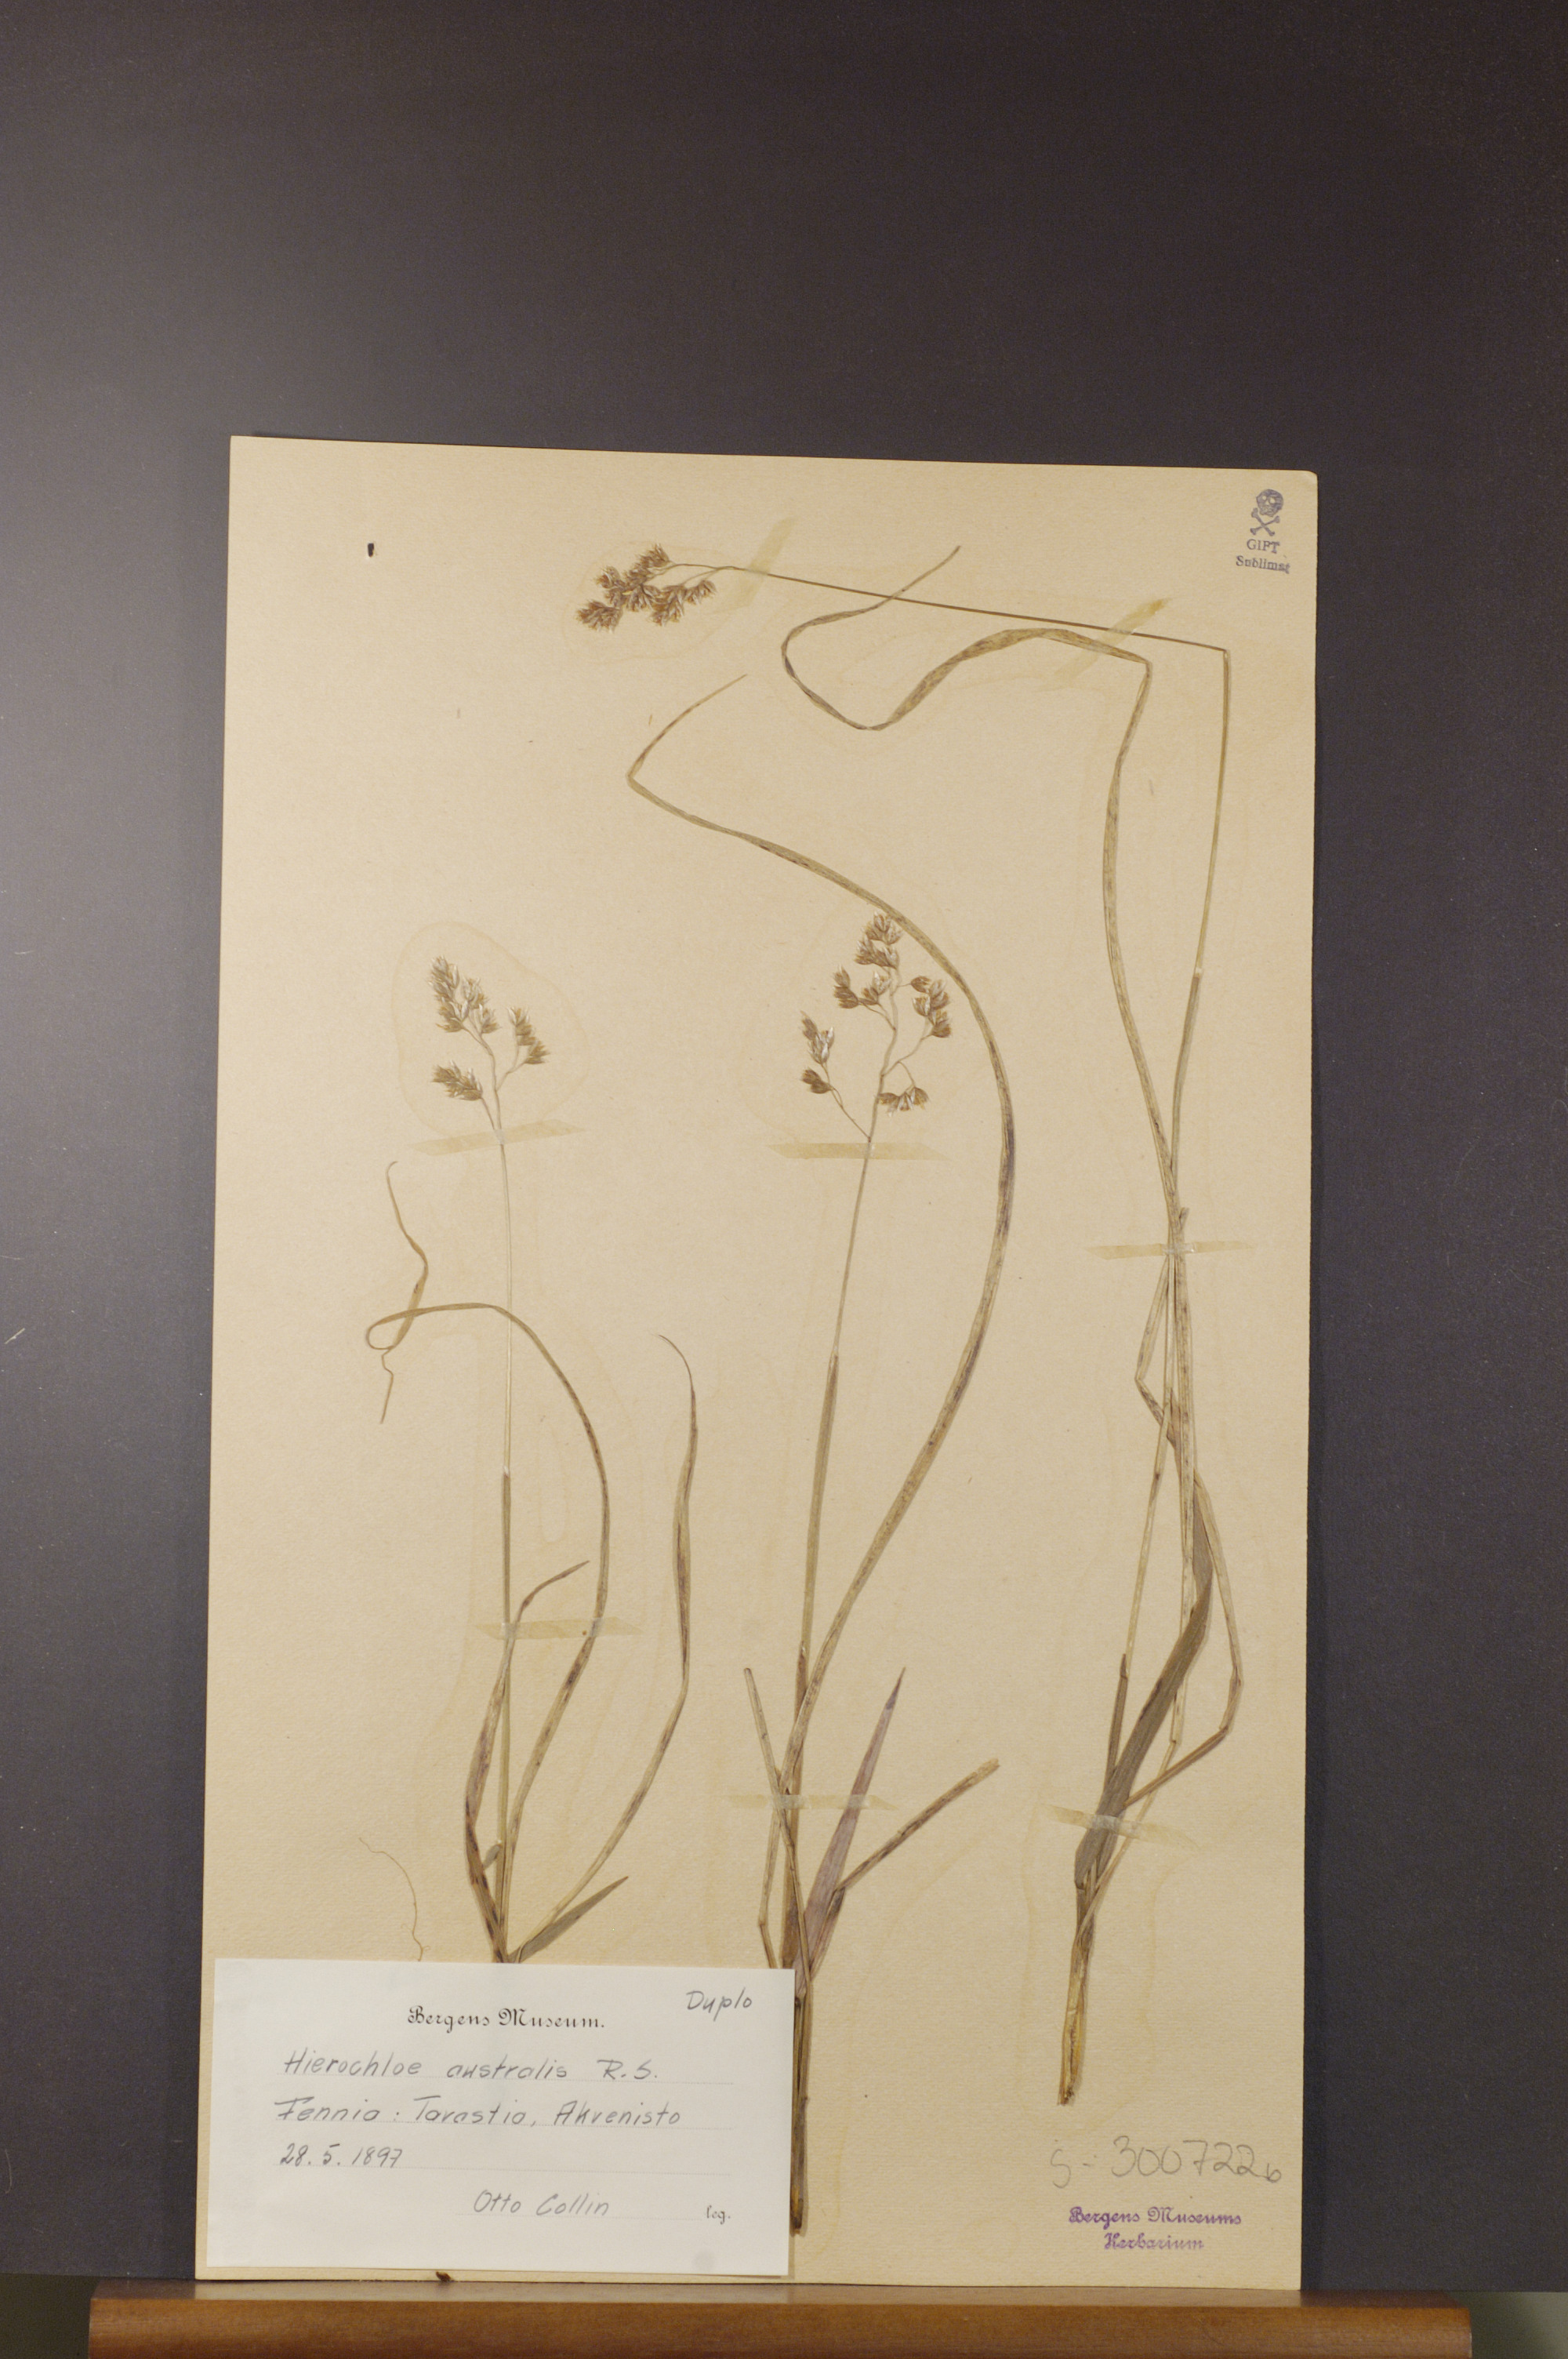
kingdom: Plantae
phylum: Tracheophyta
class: Liliopsida
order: Poales
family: Poaceae
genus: Anthoxanthum
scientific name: Anthoxanthum australe
